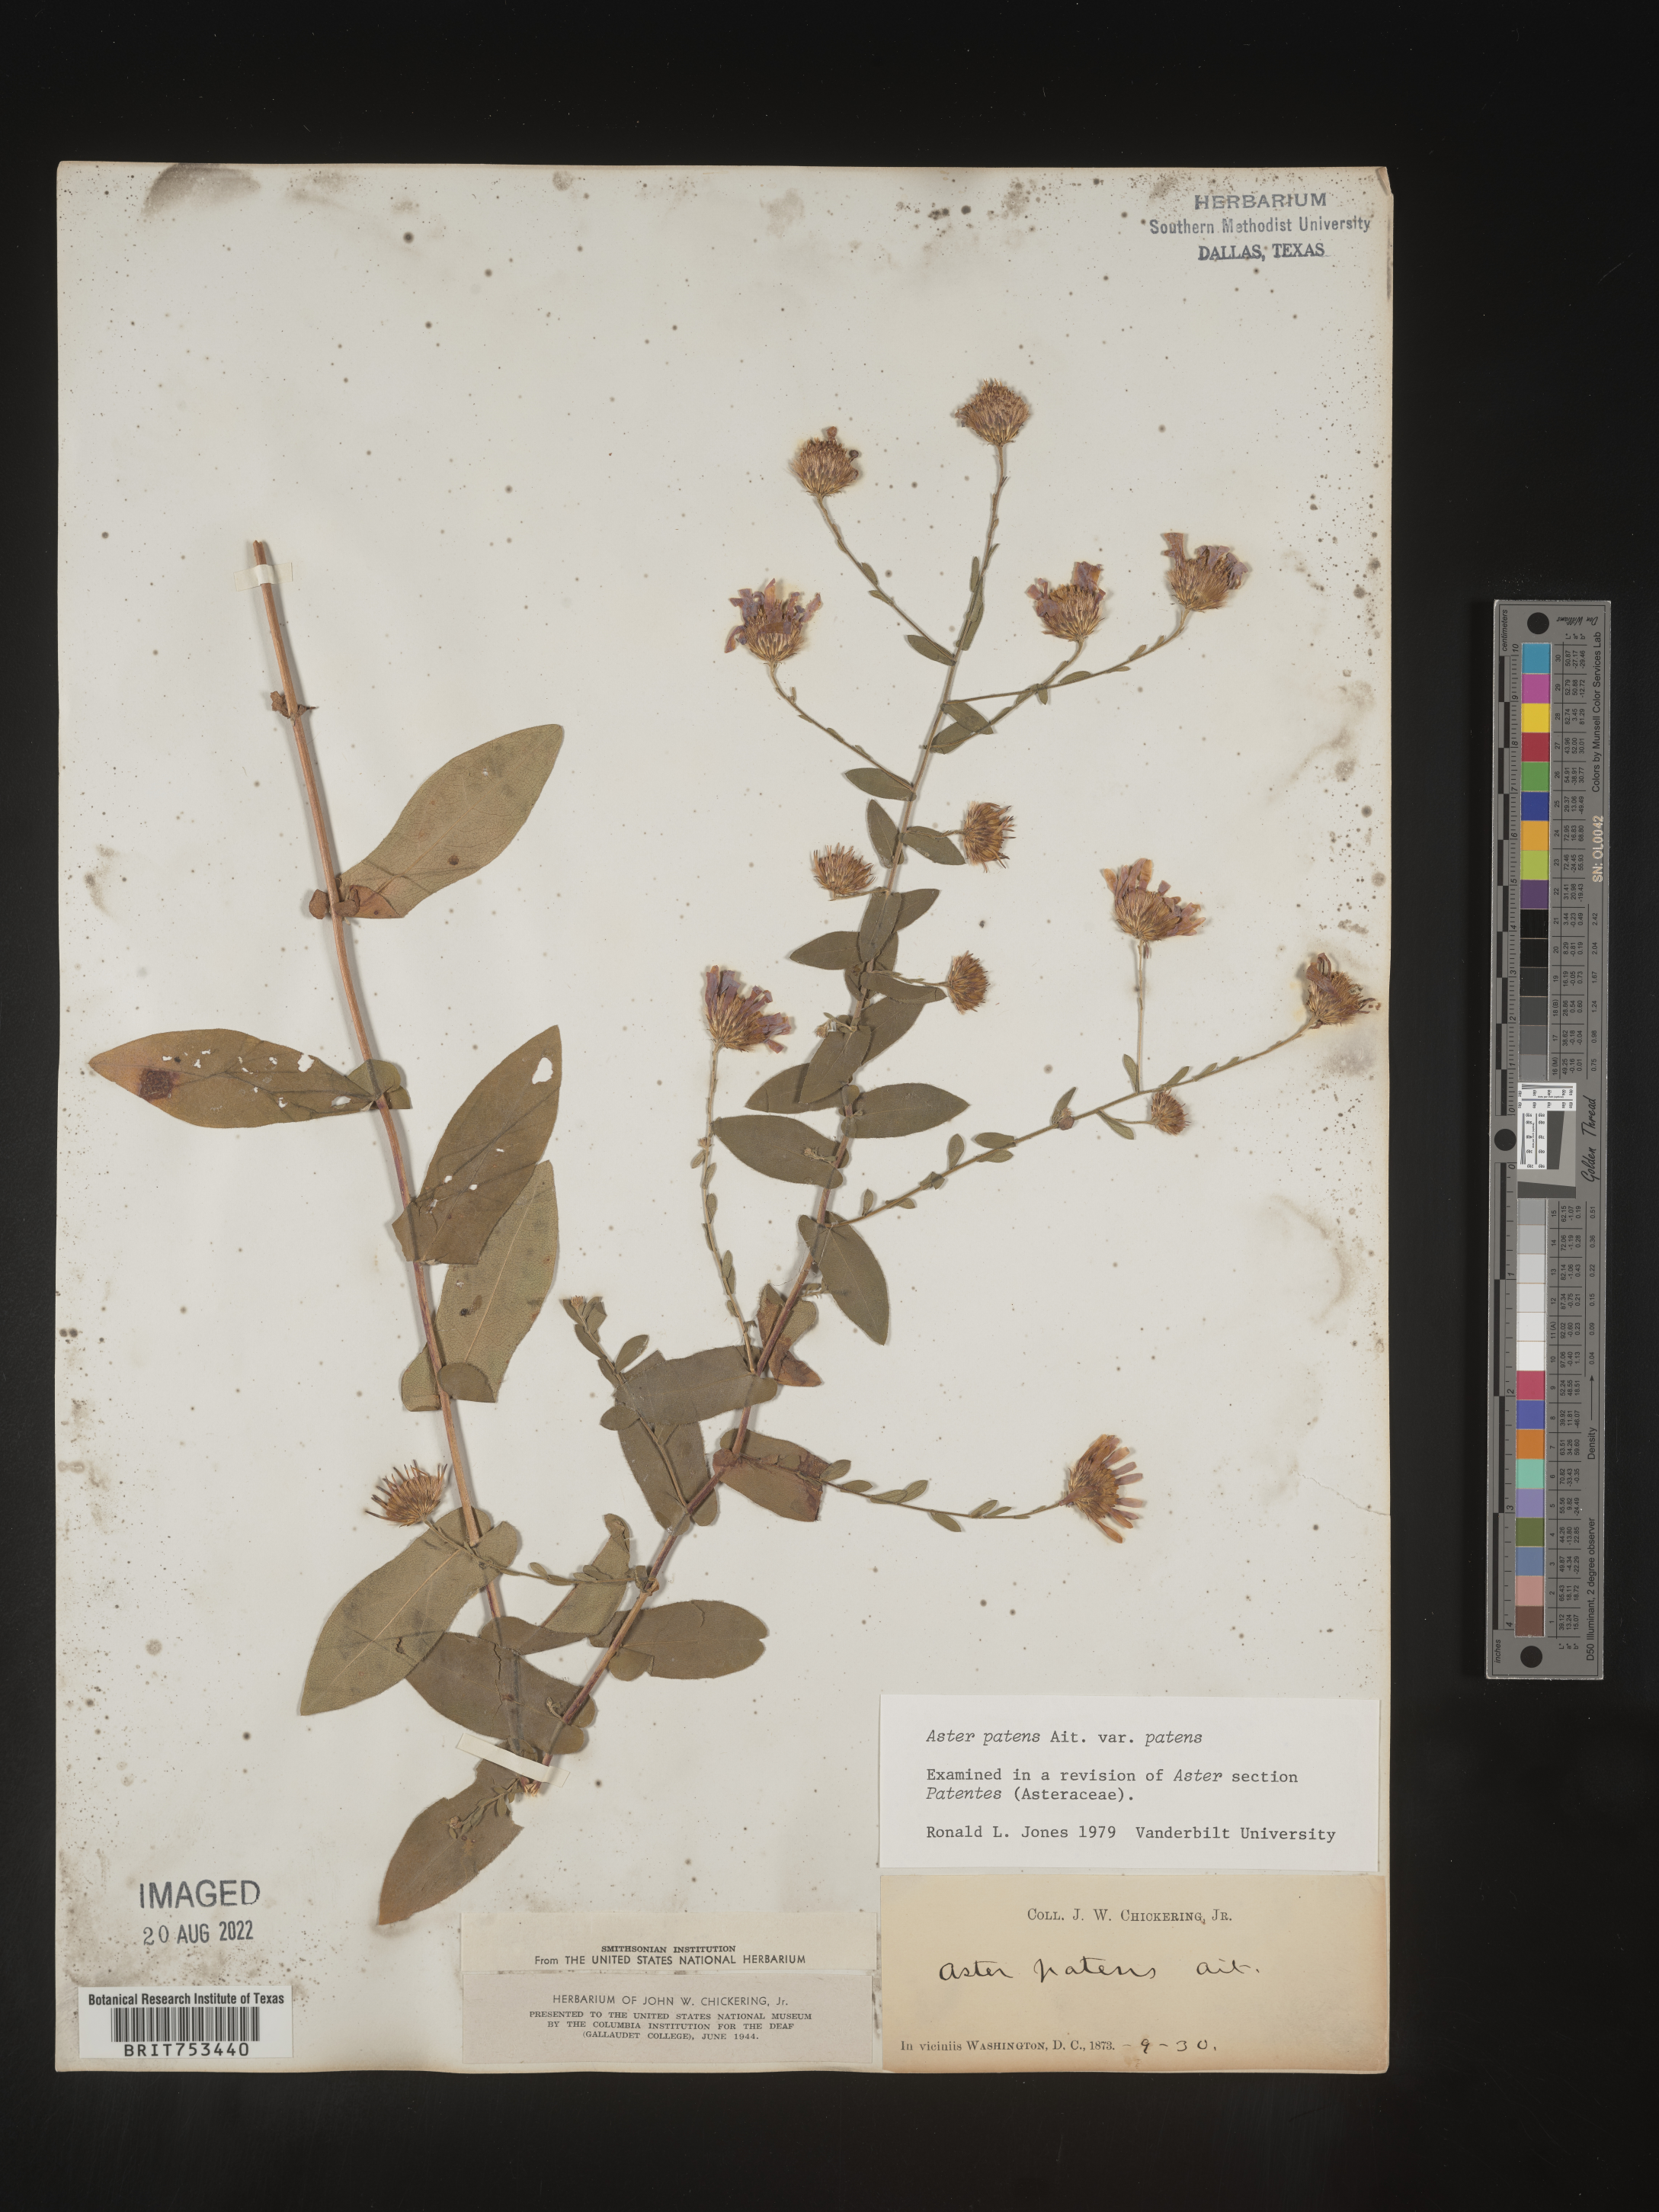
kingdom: Plantae
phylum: Tracheophyta
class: Magnoliopsida
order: Asterales
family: Asteraceae
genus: Symphyotrichum
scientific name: Symphyotrichum patens
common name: Late purple aster
